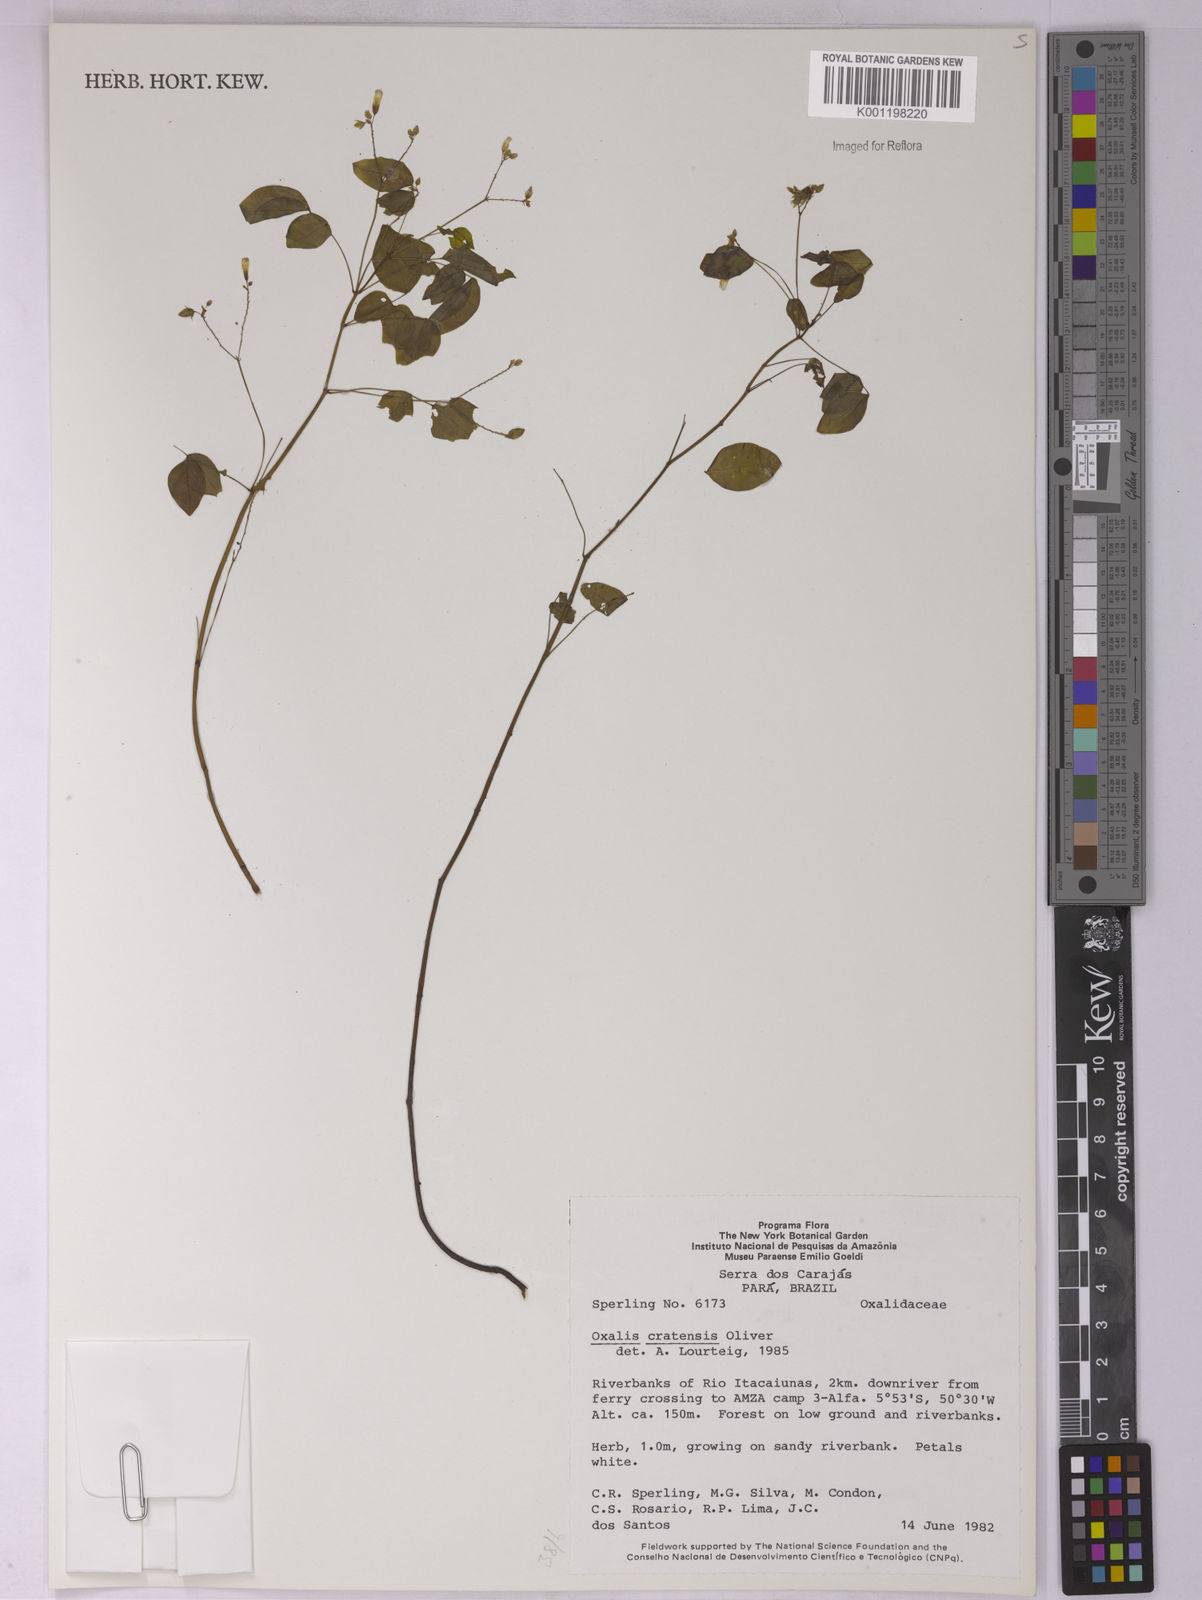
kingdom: Plantae
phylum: Tracheophyta
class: Magnoliopsida
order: Oxalidales
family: Oxalidaceae
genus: Oxalis
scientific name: Oxalis cratensis
